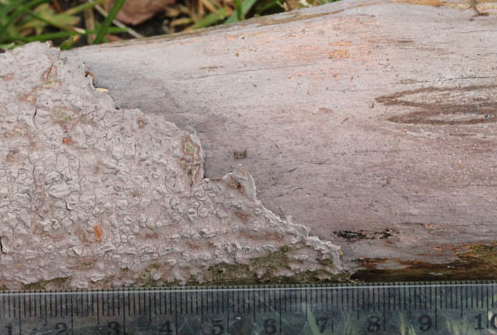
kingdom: Fungi
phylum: Basidiomycota
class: Agaricomycetes
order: Polyporales
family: Meruliaceae
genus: Scopuloides
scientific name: Scopuloides rimosa
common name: dughinde
